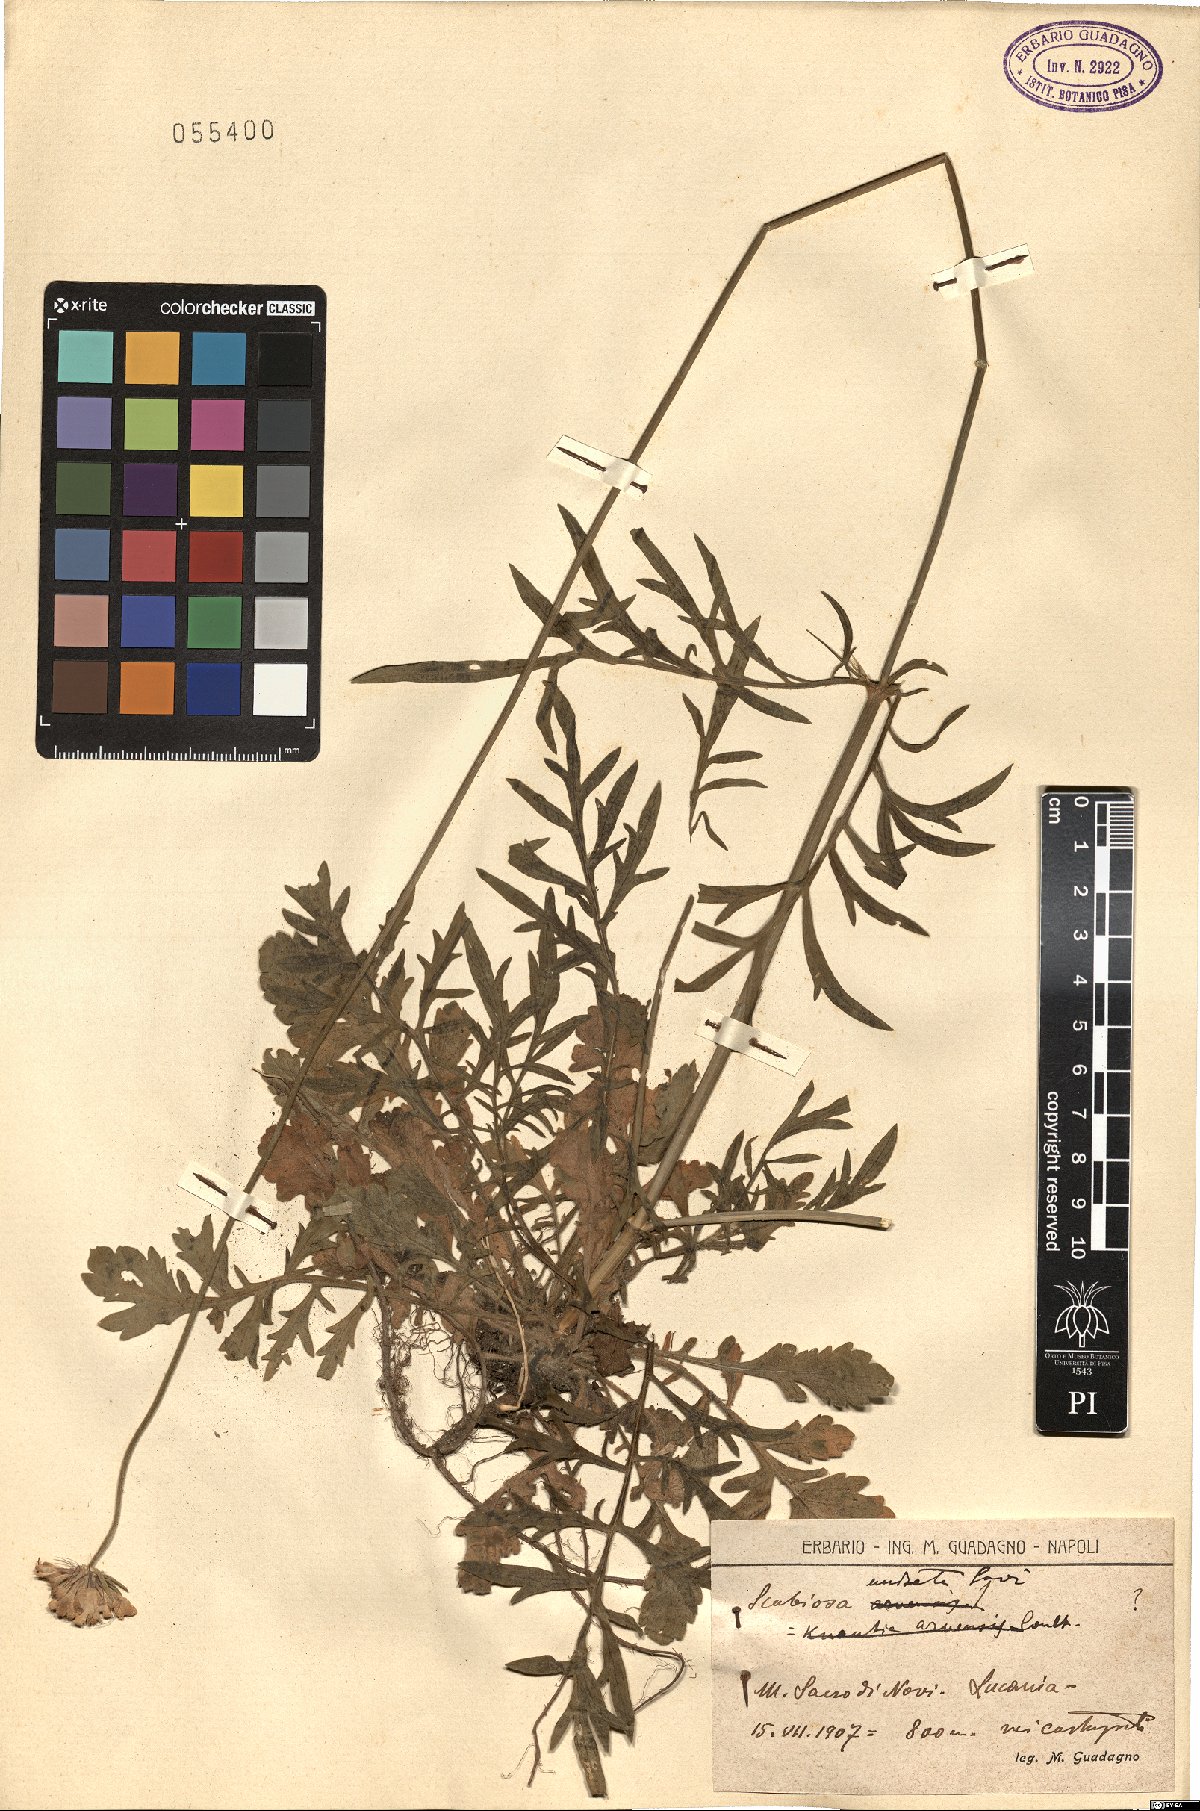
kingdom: Plantae
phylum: Tracheophyta
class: Magnoliopsida
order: Dipsacales
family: Caprifoliaceae
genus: Scabiosa
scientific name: Scabiosa columbaria
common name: Small scabious
